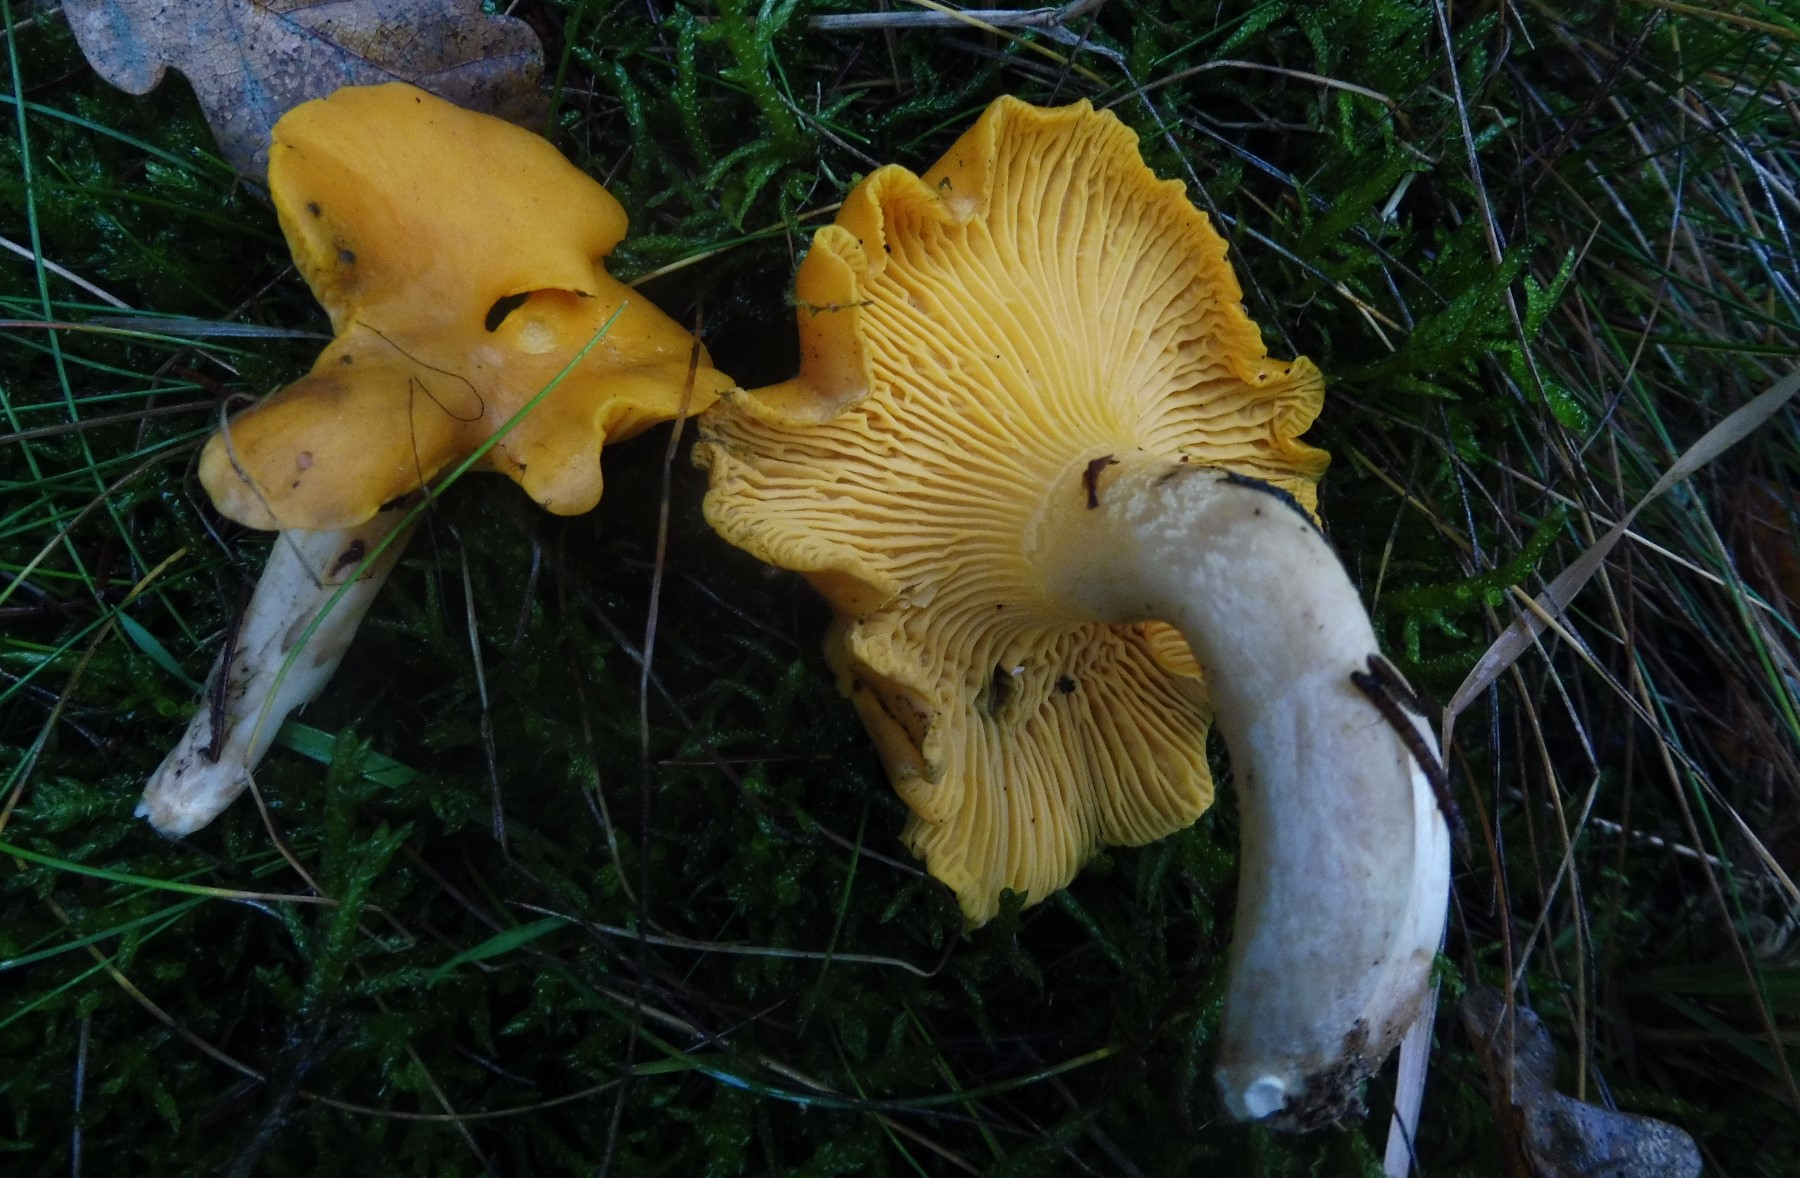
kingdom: Fungi
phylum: Basidiomycota
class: Agaricomycetes
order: Cantharellales
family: Hydnaceae
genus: Cantharellus
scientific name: Cantharellus cibarius
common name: almindelig kantarel
